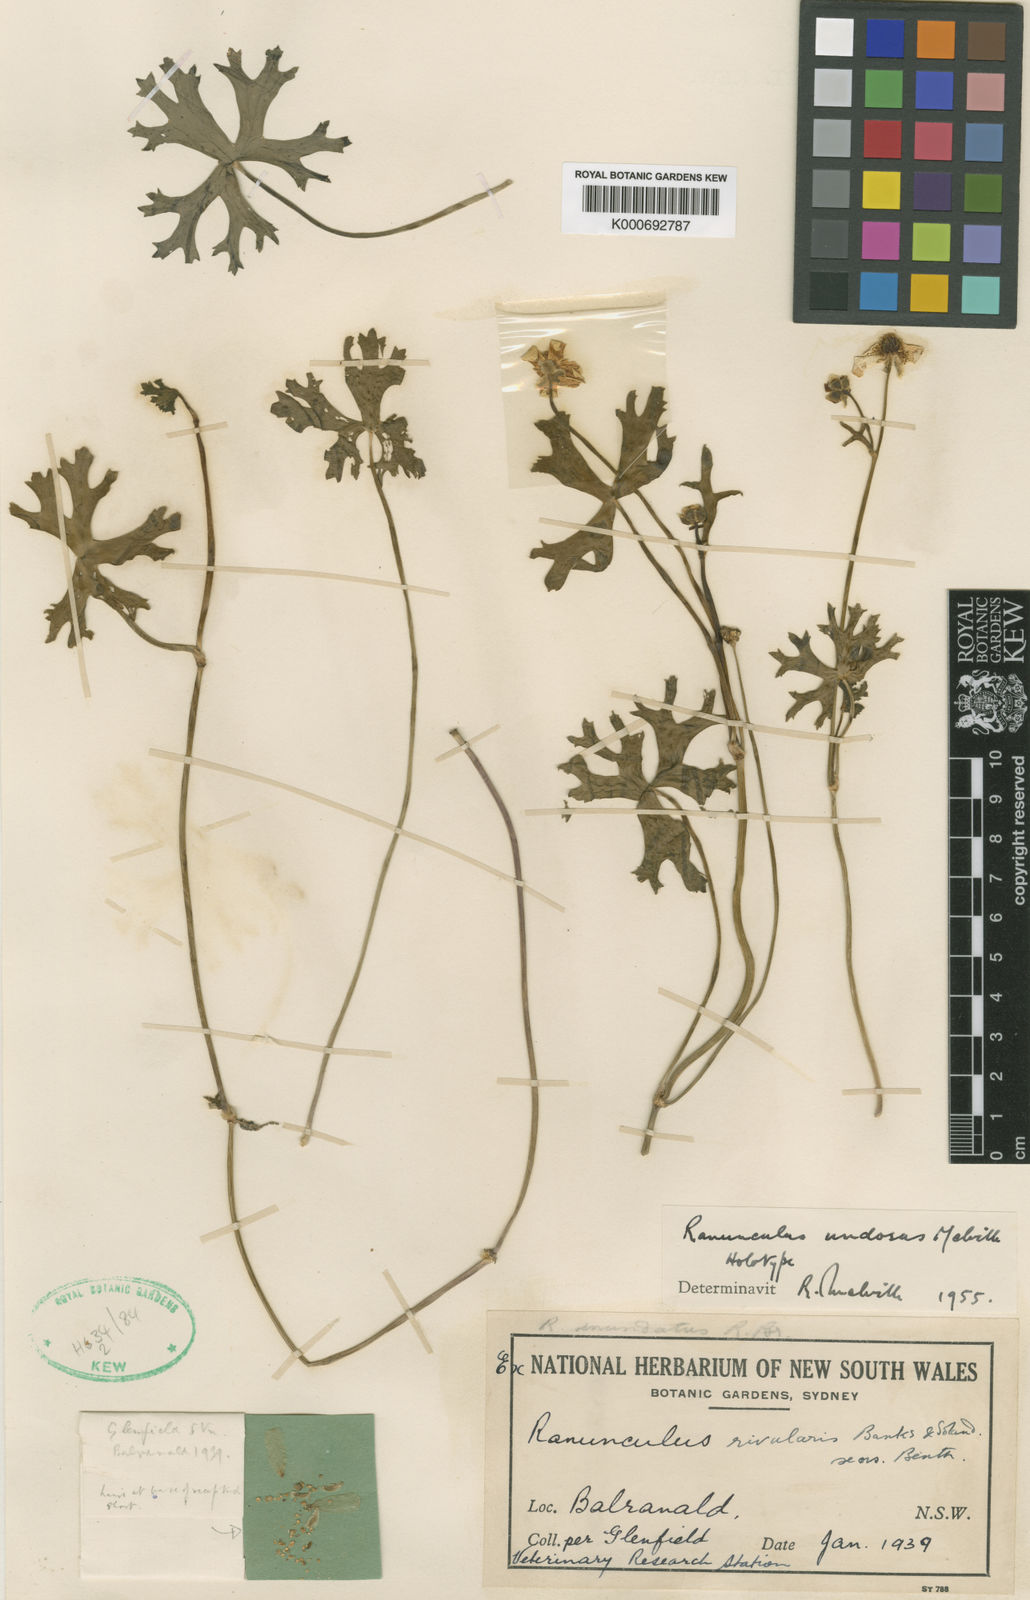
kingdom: Plantae
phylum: Tracheophyta
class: Magnoliopsida
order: Ranunculales
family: Ranunculaceae
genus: Ranunculus
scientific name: Ranunculus undosus
